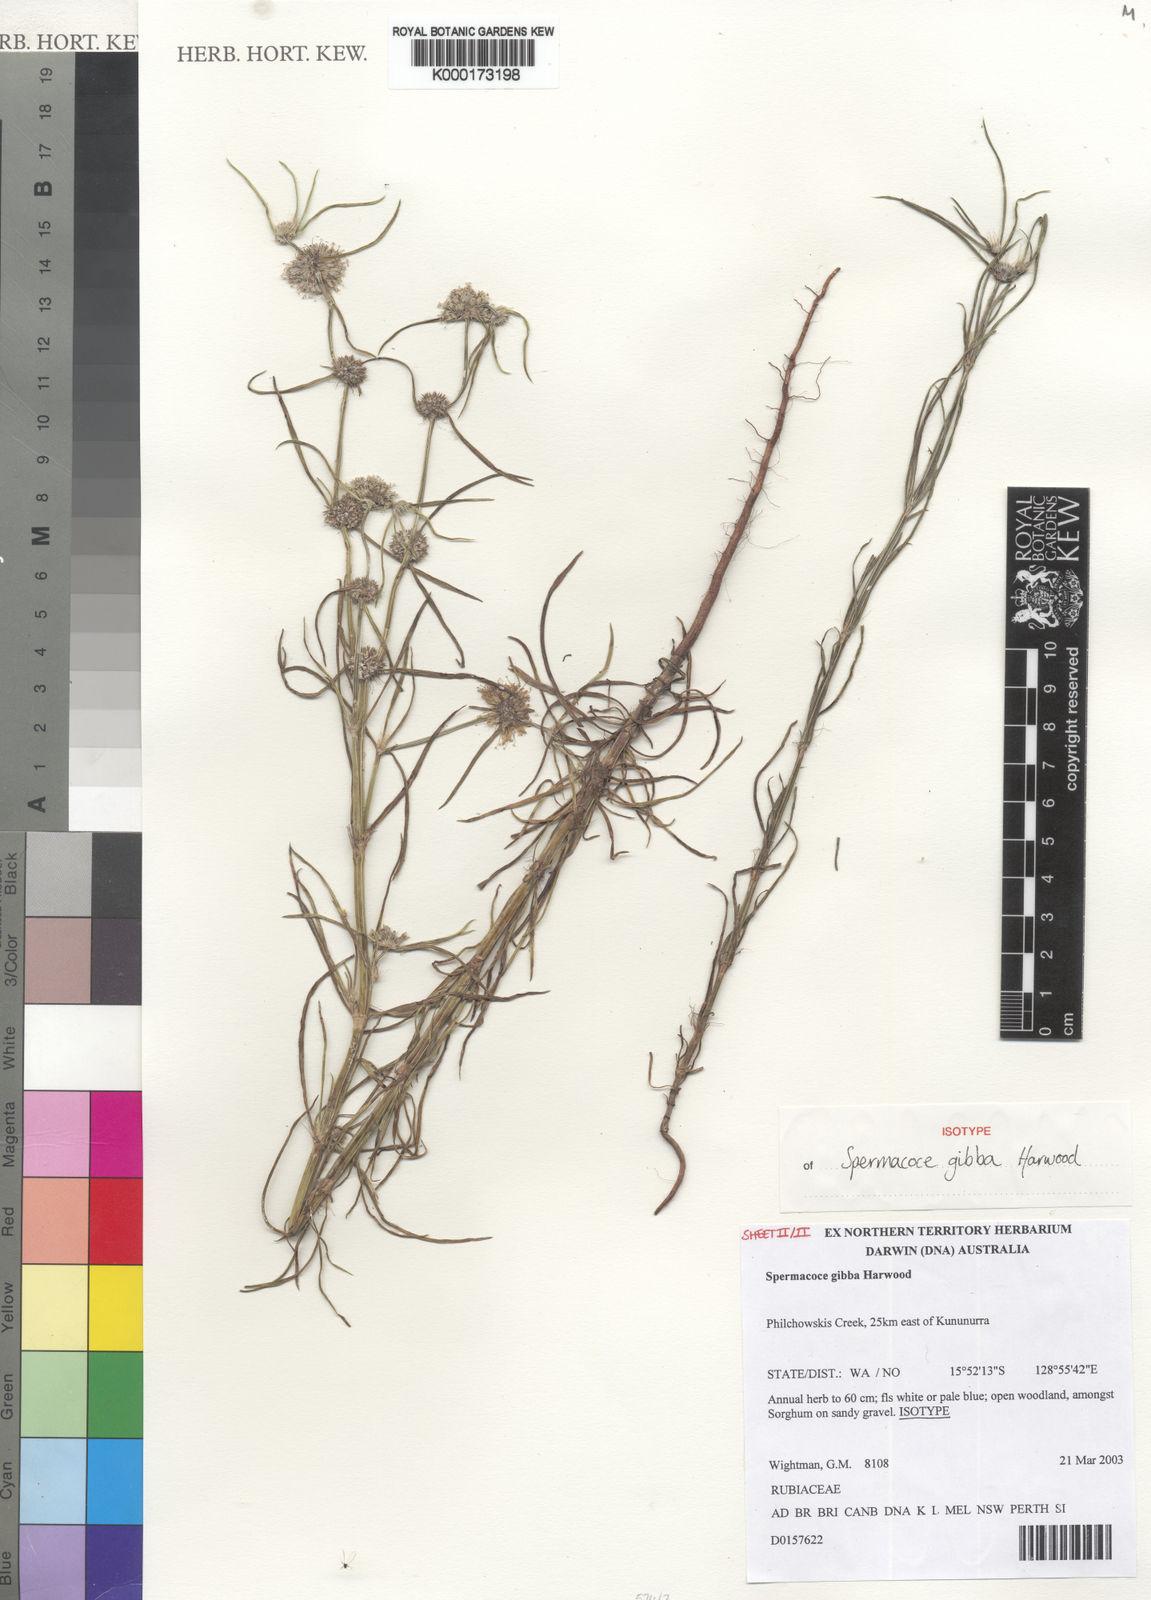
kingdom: Plantae
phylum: Tracheophyta
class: Magnoliopsida
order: Gentianales
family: Rubiaceae
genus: Spermacoce
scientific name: Spermacoce gibba
